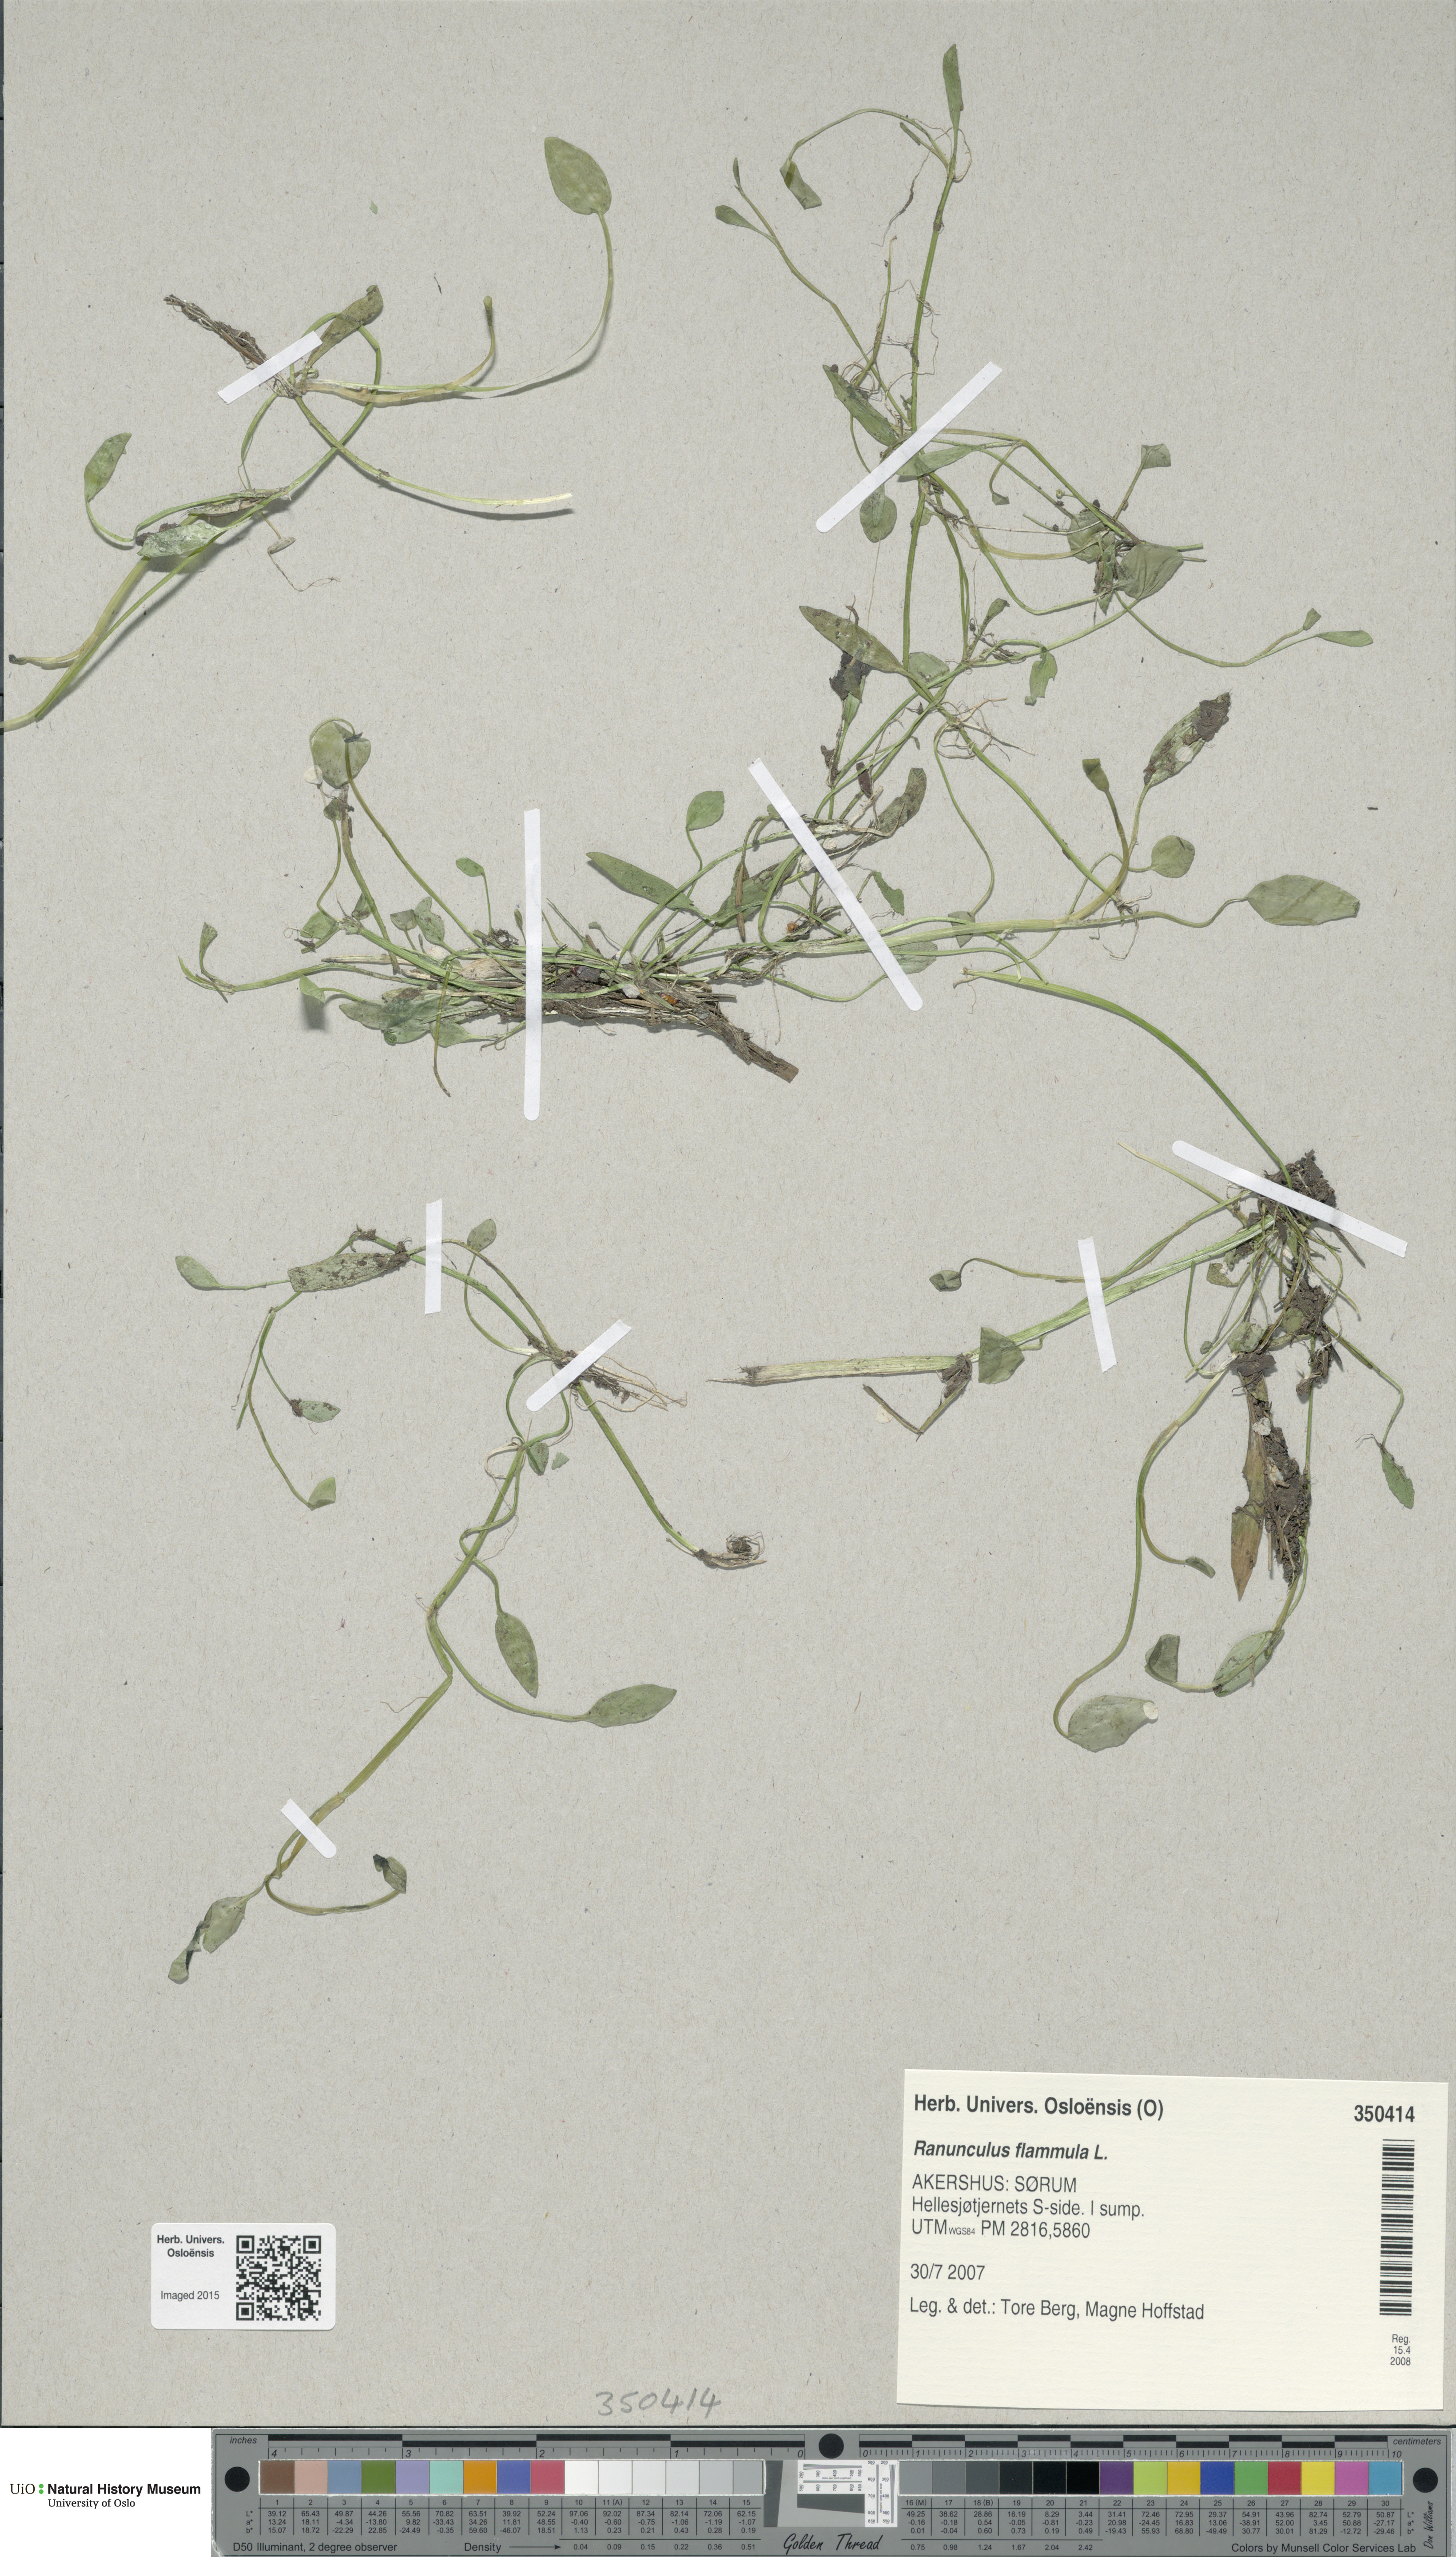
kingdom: Plantae
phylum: Tracheophyta
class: Magnoliopsida
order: Ranunculales
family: Ranunculaceae
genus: Ranunculus
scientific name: Ranunculus flammula
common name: Lesser spearwort
